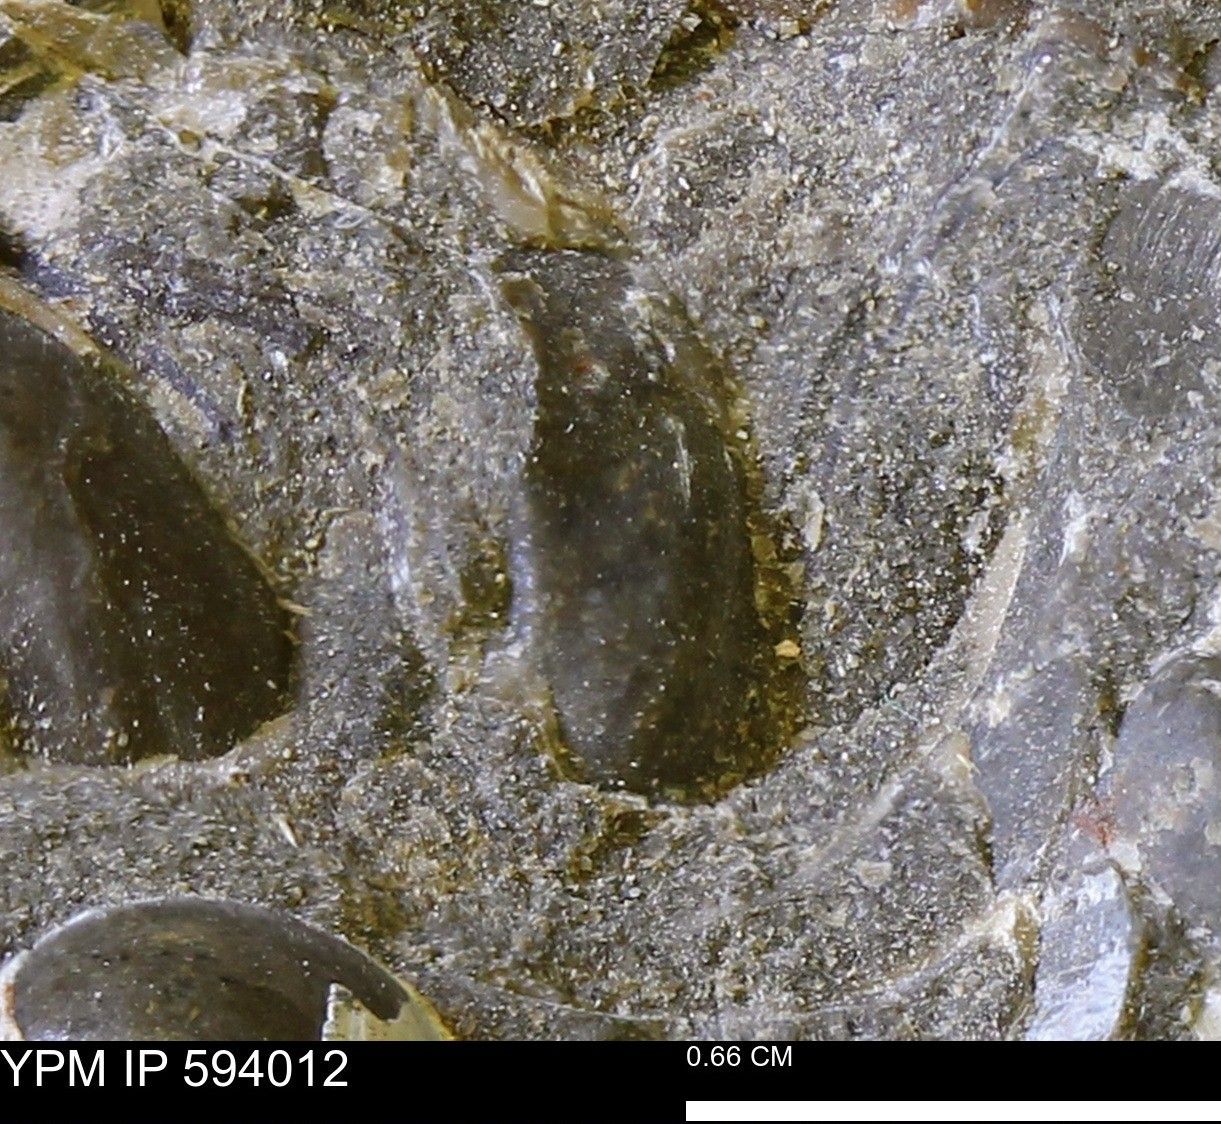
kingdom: Animalia
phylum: Mollusca
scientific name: Mollusca
